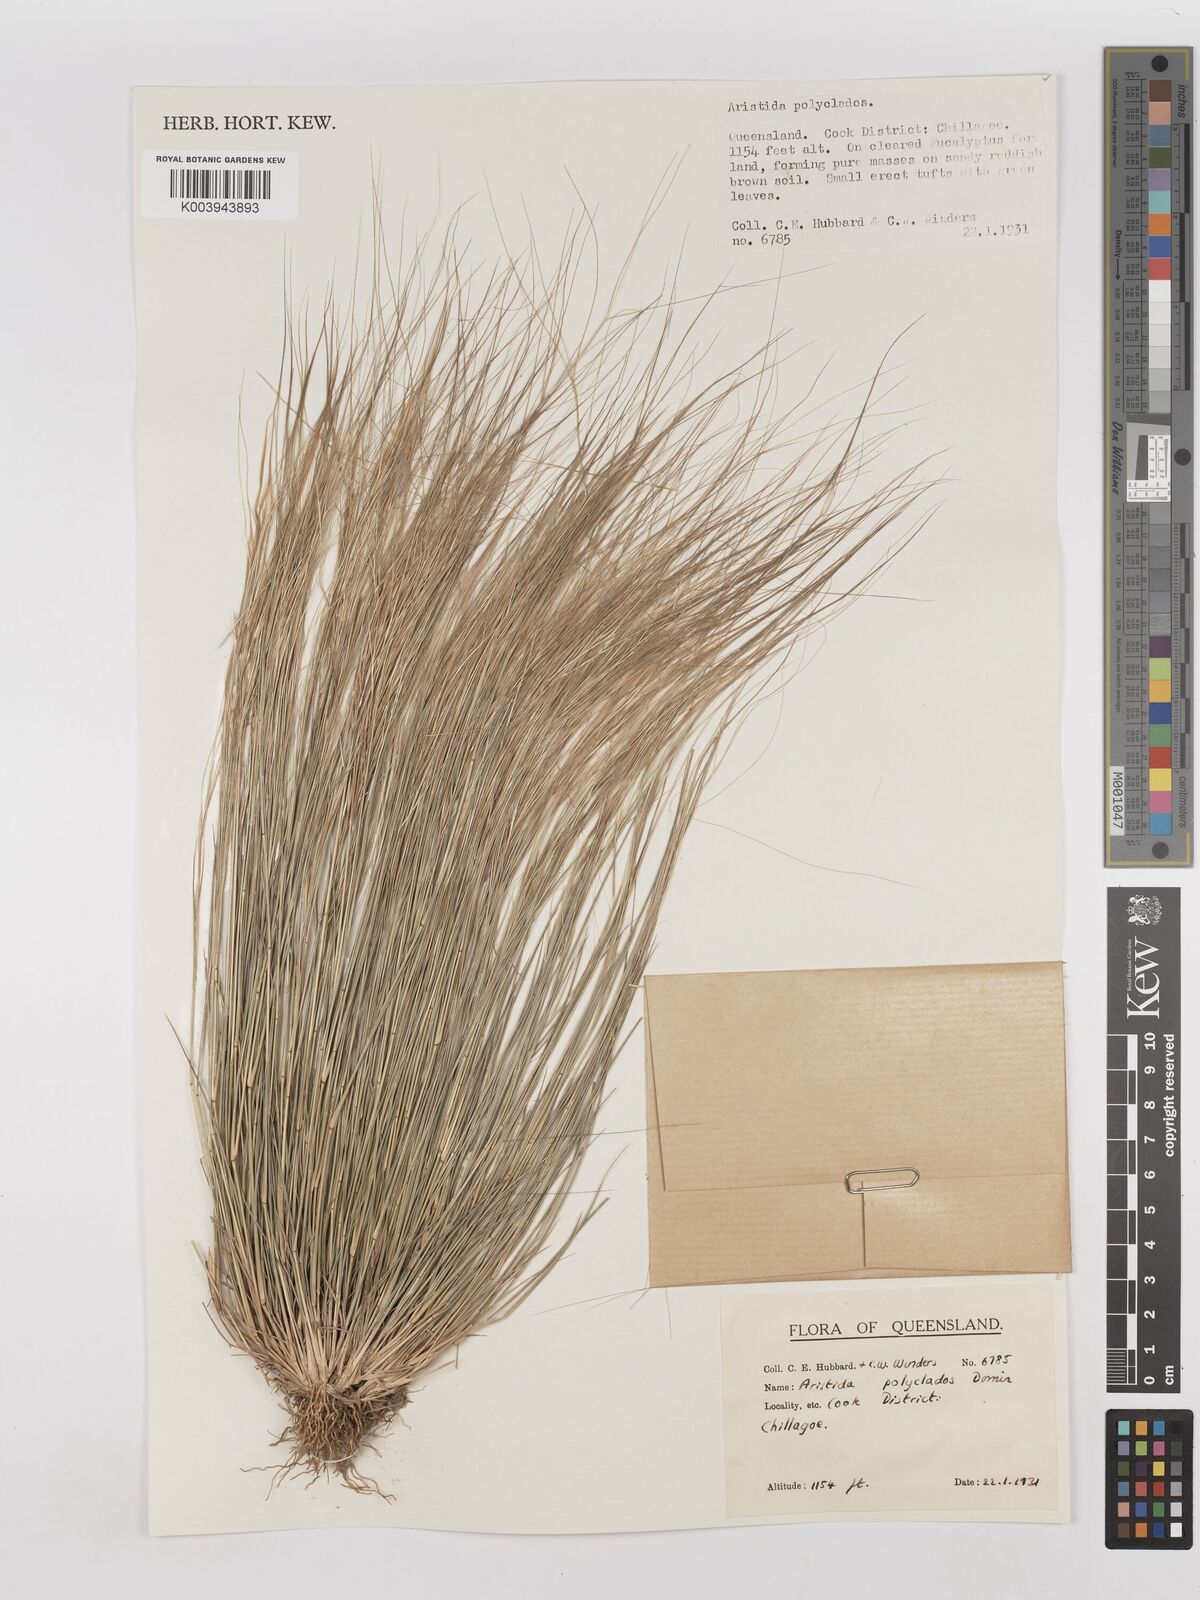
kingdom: Plantae
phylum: Tracheophyta
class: Liliopsida
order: Poales
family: Poaceae
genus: Aristida
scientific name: Aristida polyclados
